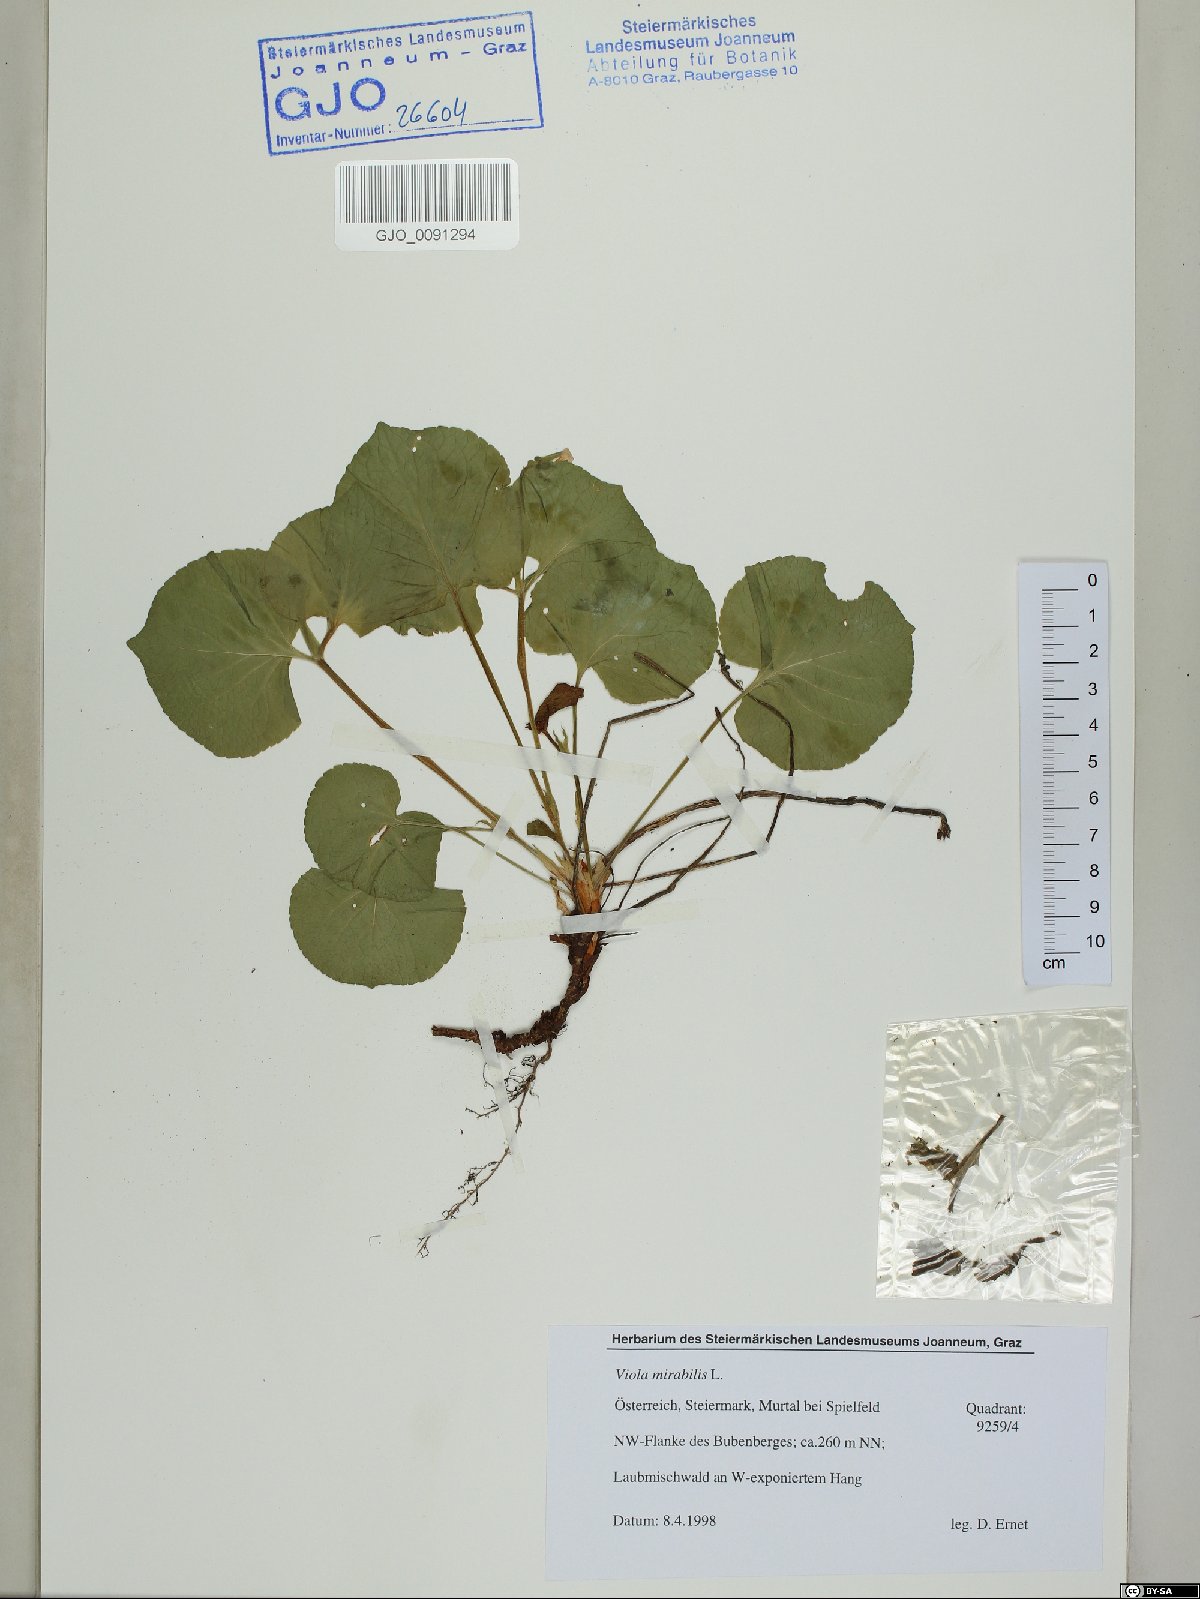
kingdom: Plantae
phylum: Tracheophyta
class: Magnoliopsida
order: Malpighiales
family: Violaceae
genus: Viola
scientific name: Viola mirabilis
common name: Wonder violet
